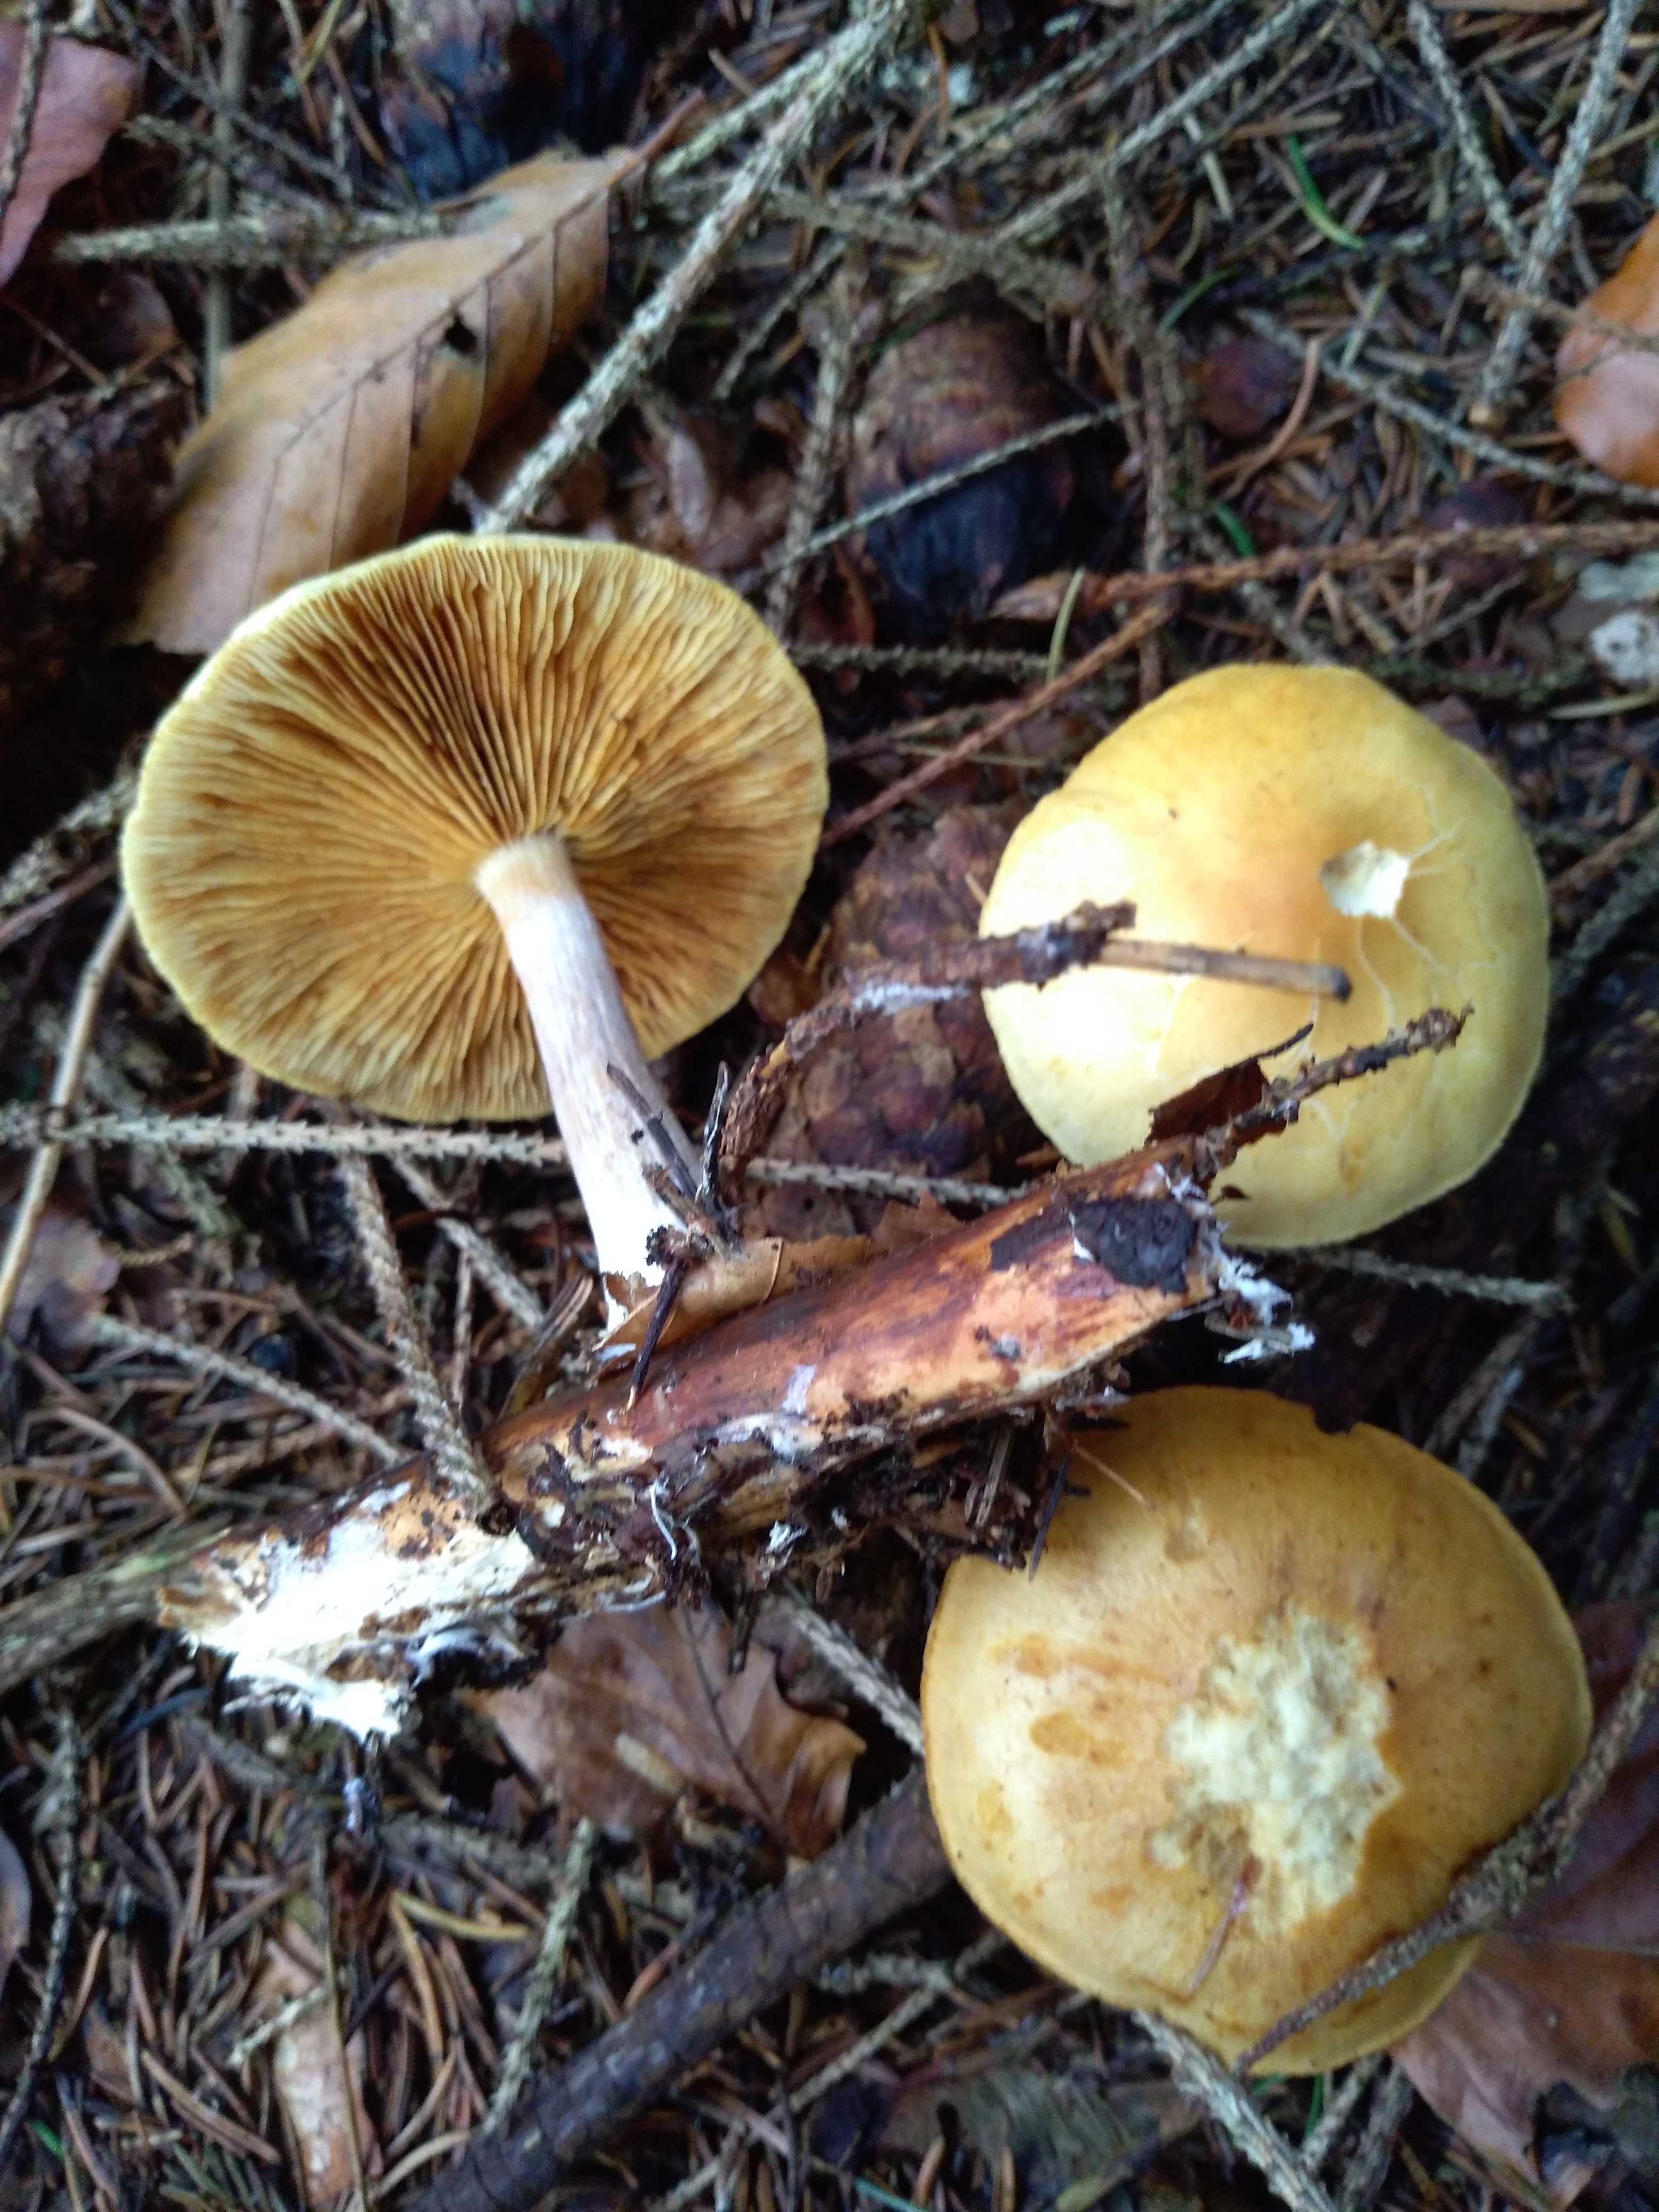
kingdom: Fungi
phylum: Basidiomycota
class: Agaricomycetes
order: Agaricales
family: Hymenogastraceae
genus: Gymnopilus
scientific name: Gymnopilus penetrans
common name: plettet flammehat
